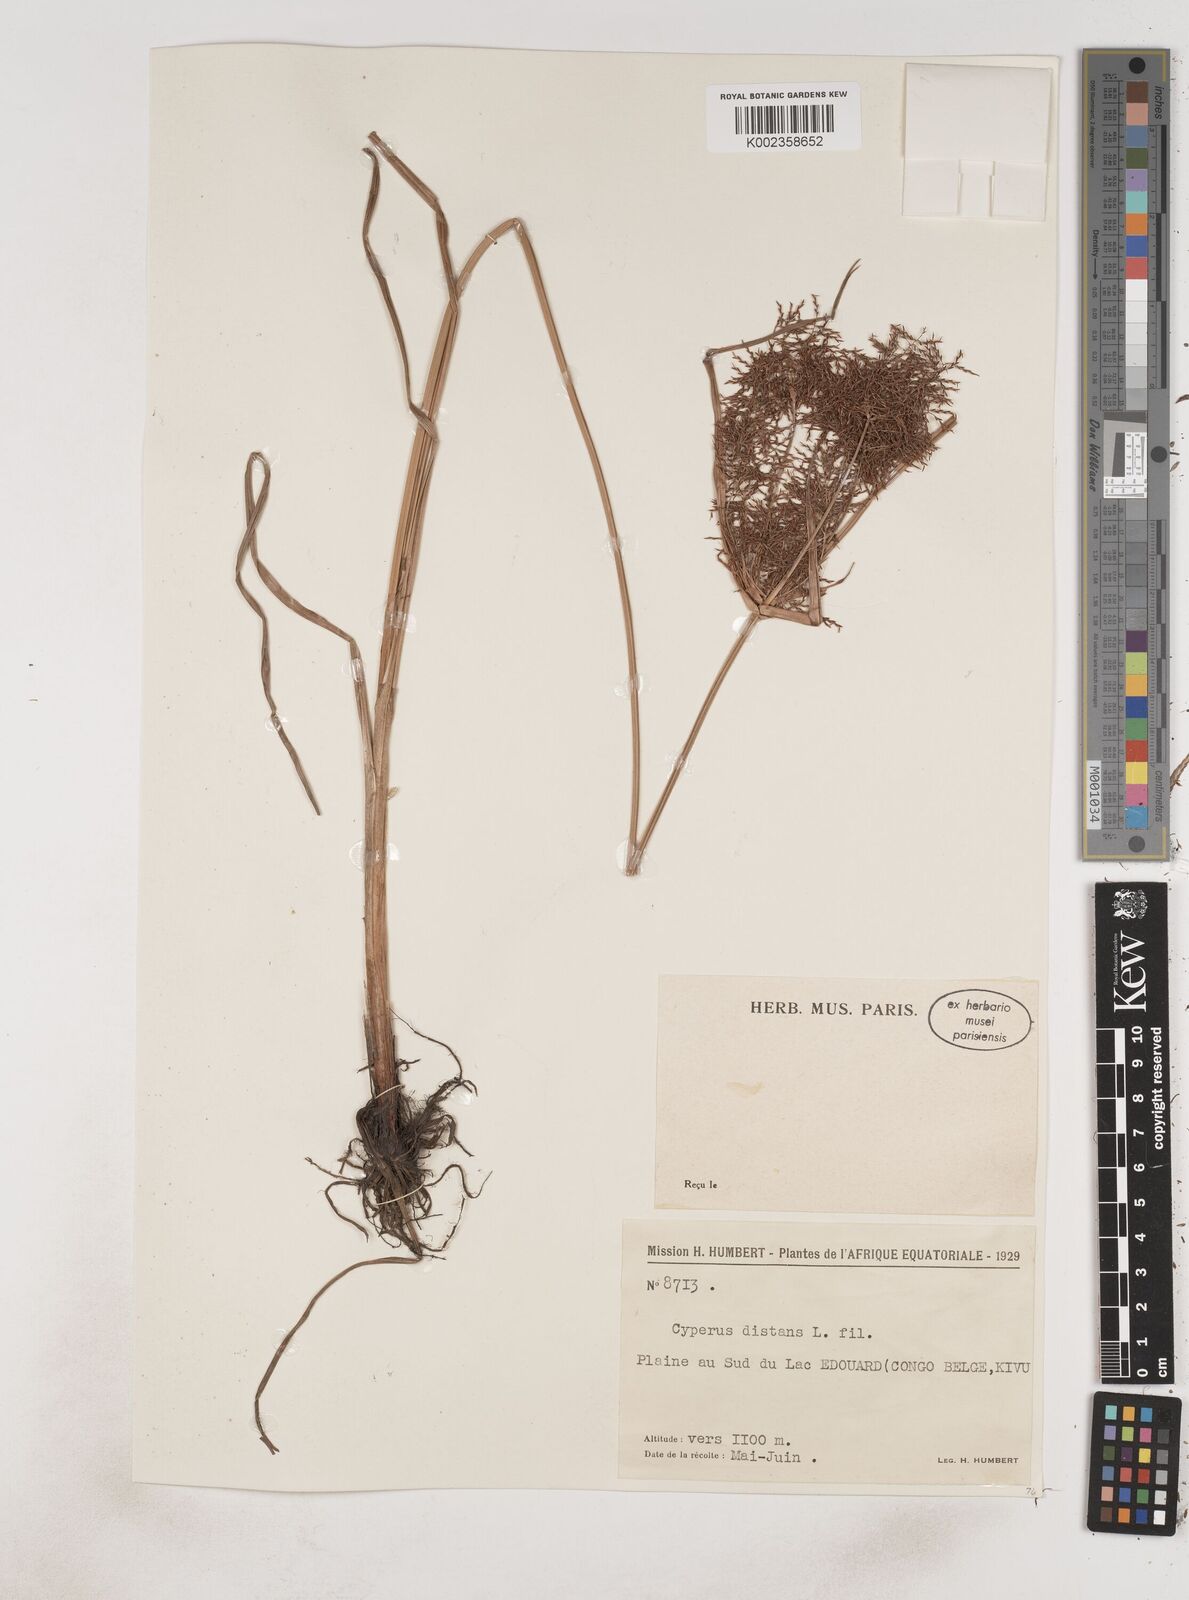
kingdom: Plantae
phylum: Tracheophyta
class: Liliopsida
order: Poales
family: Cyperaceae
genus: Cyperus
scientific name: Cyperus distans
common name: Slender cyperus
